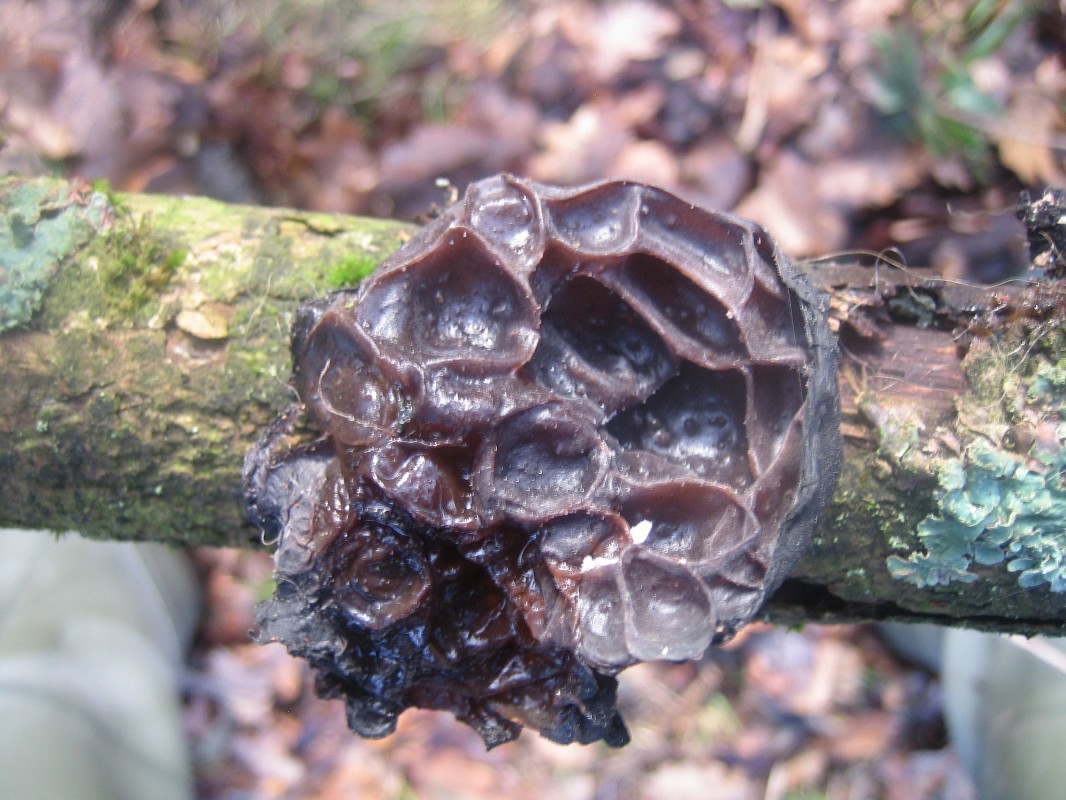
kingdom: Fungi
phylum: Basidiomycota
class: Agaricomycetes
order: Auriculariales
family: Auriculariaceae
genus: Exidia
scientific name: Exidia glandulosa
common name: ege-bævretop
